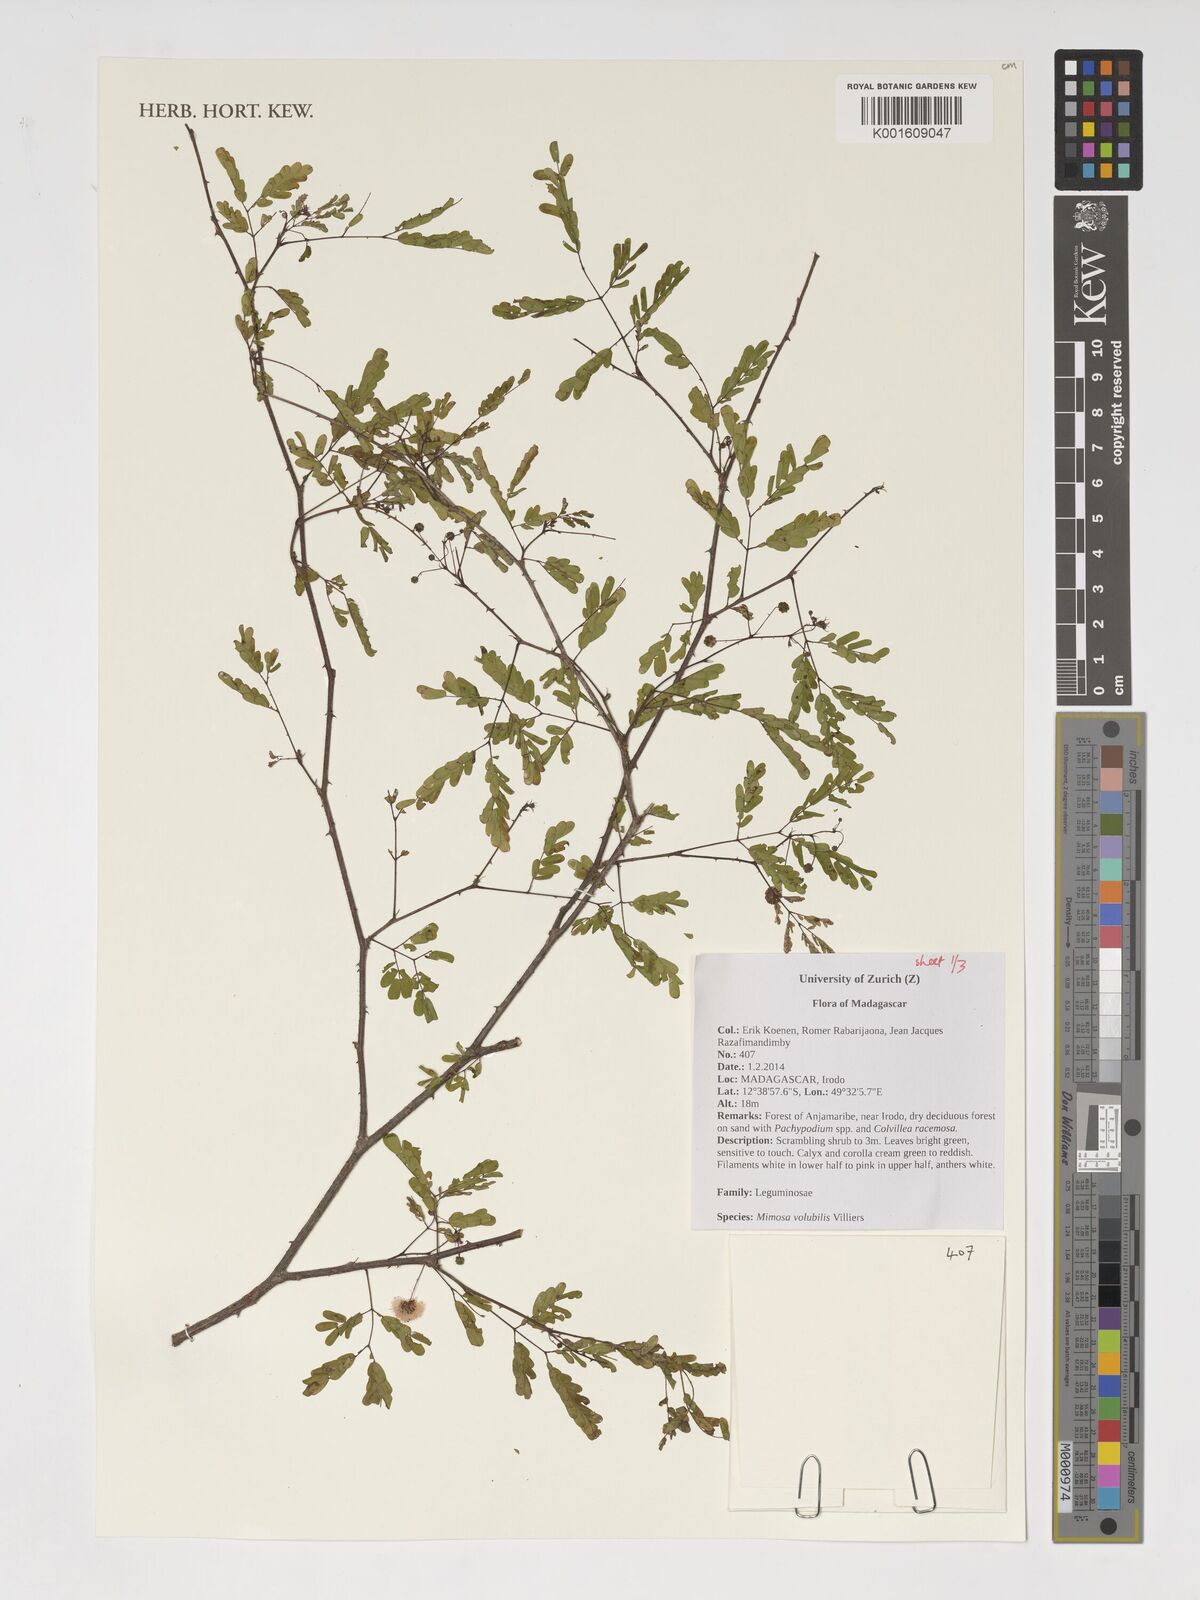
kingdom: Plantae
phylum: Tracheophyta
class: Magnoliopsida
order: Fabales
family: Fabaceae
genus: Mimosa
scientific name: Mimosa volubilis
